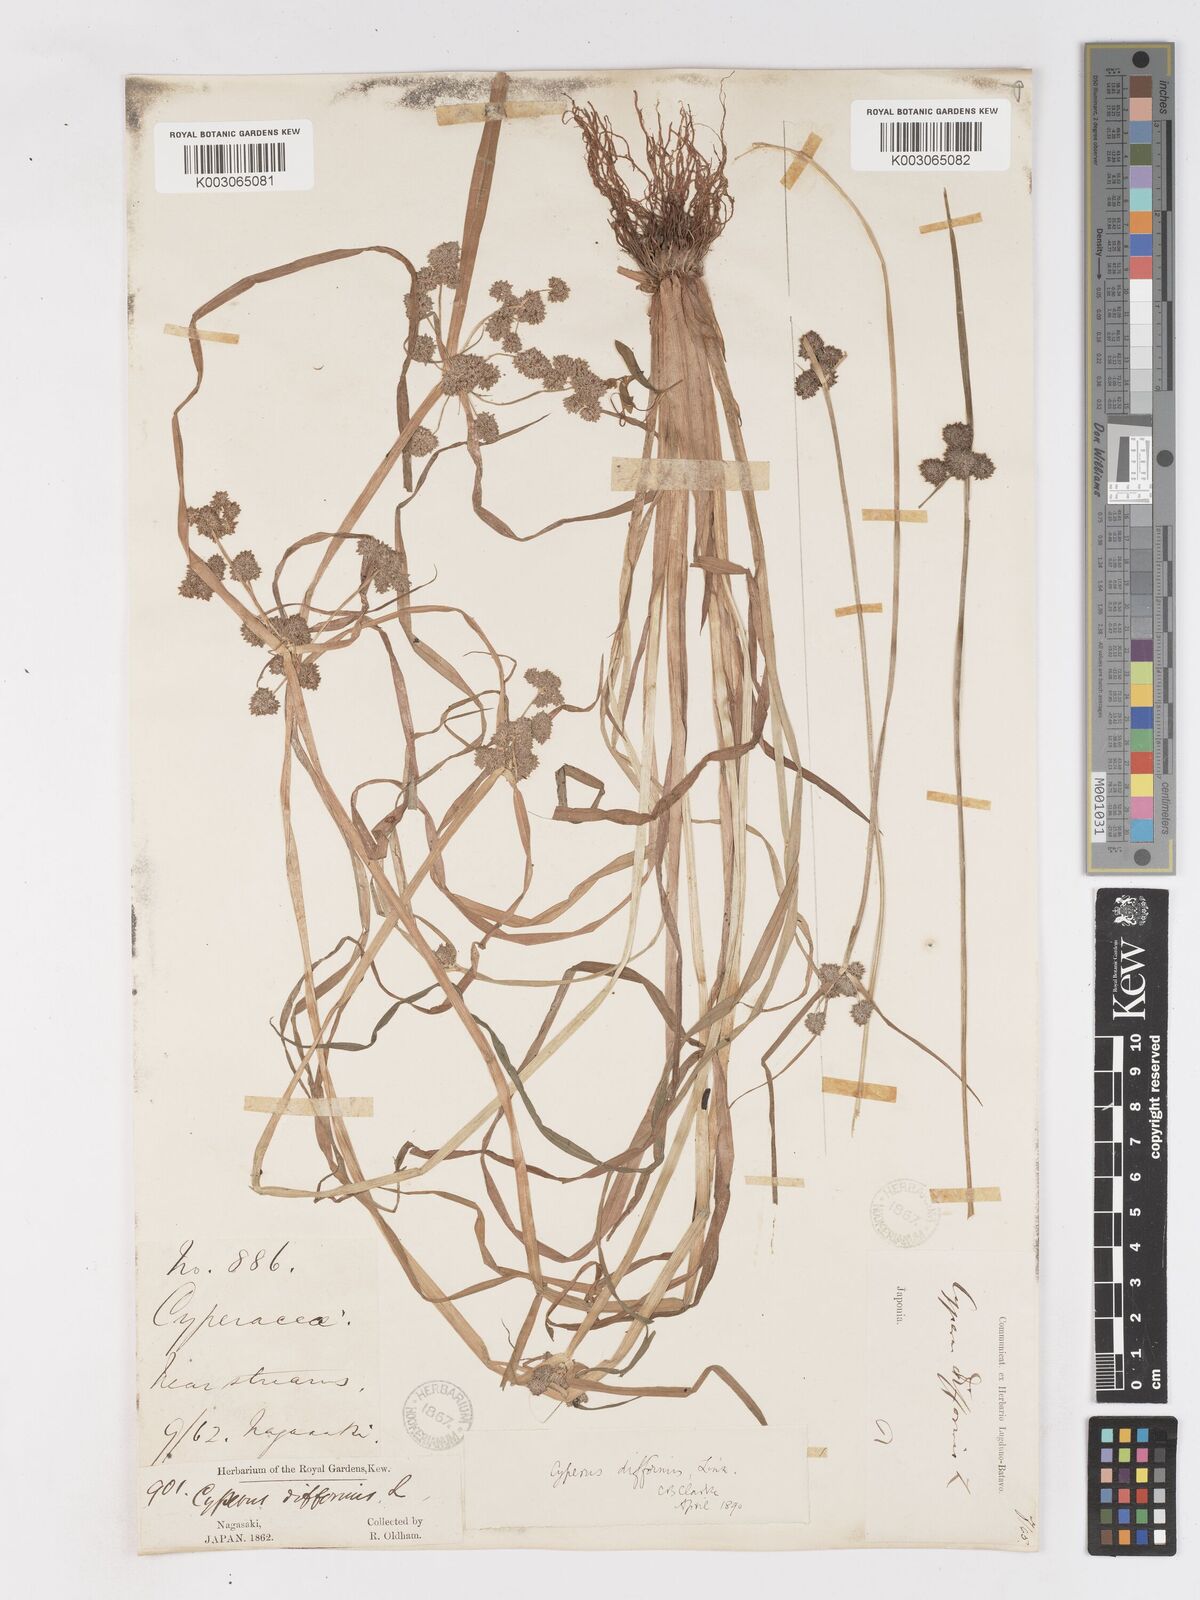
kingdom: Plantae
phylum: Tracheophyta
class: Liliopsida
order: Poales
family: Cyperaceae
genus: Cyperus
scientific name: Cyperus difformis
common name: Variable flatsedge
